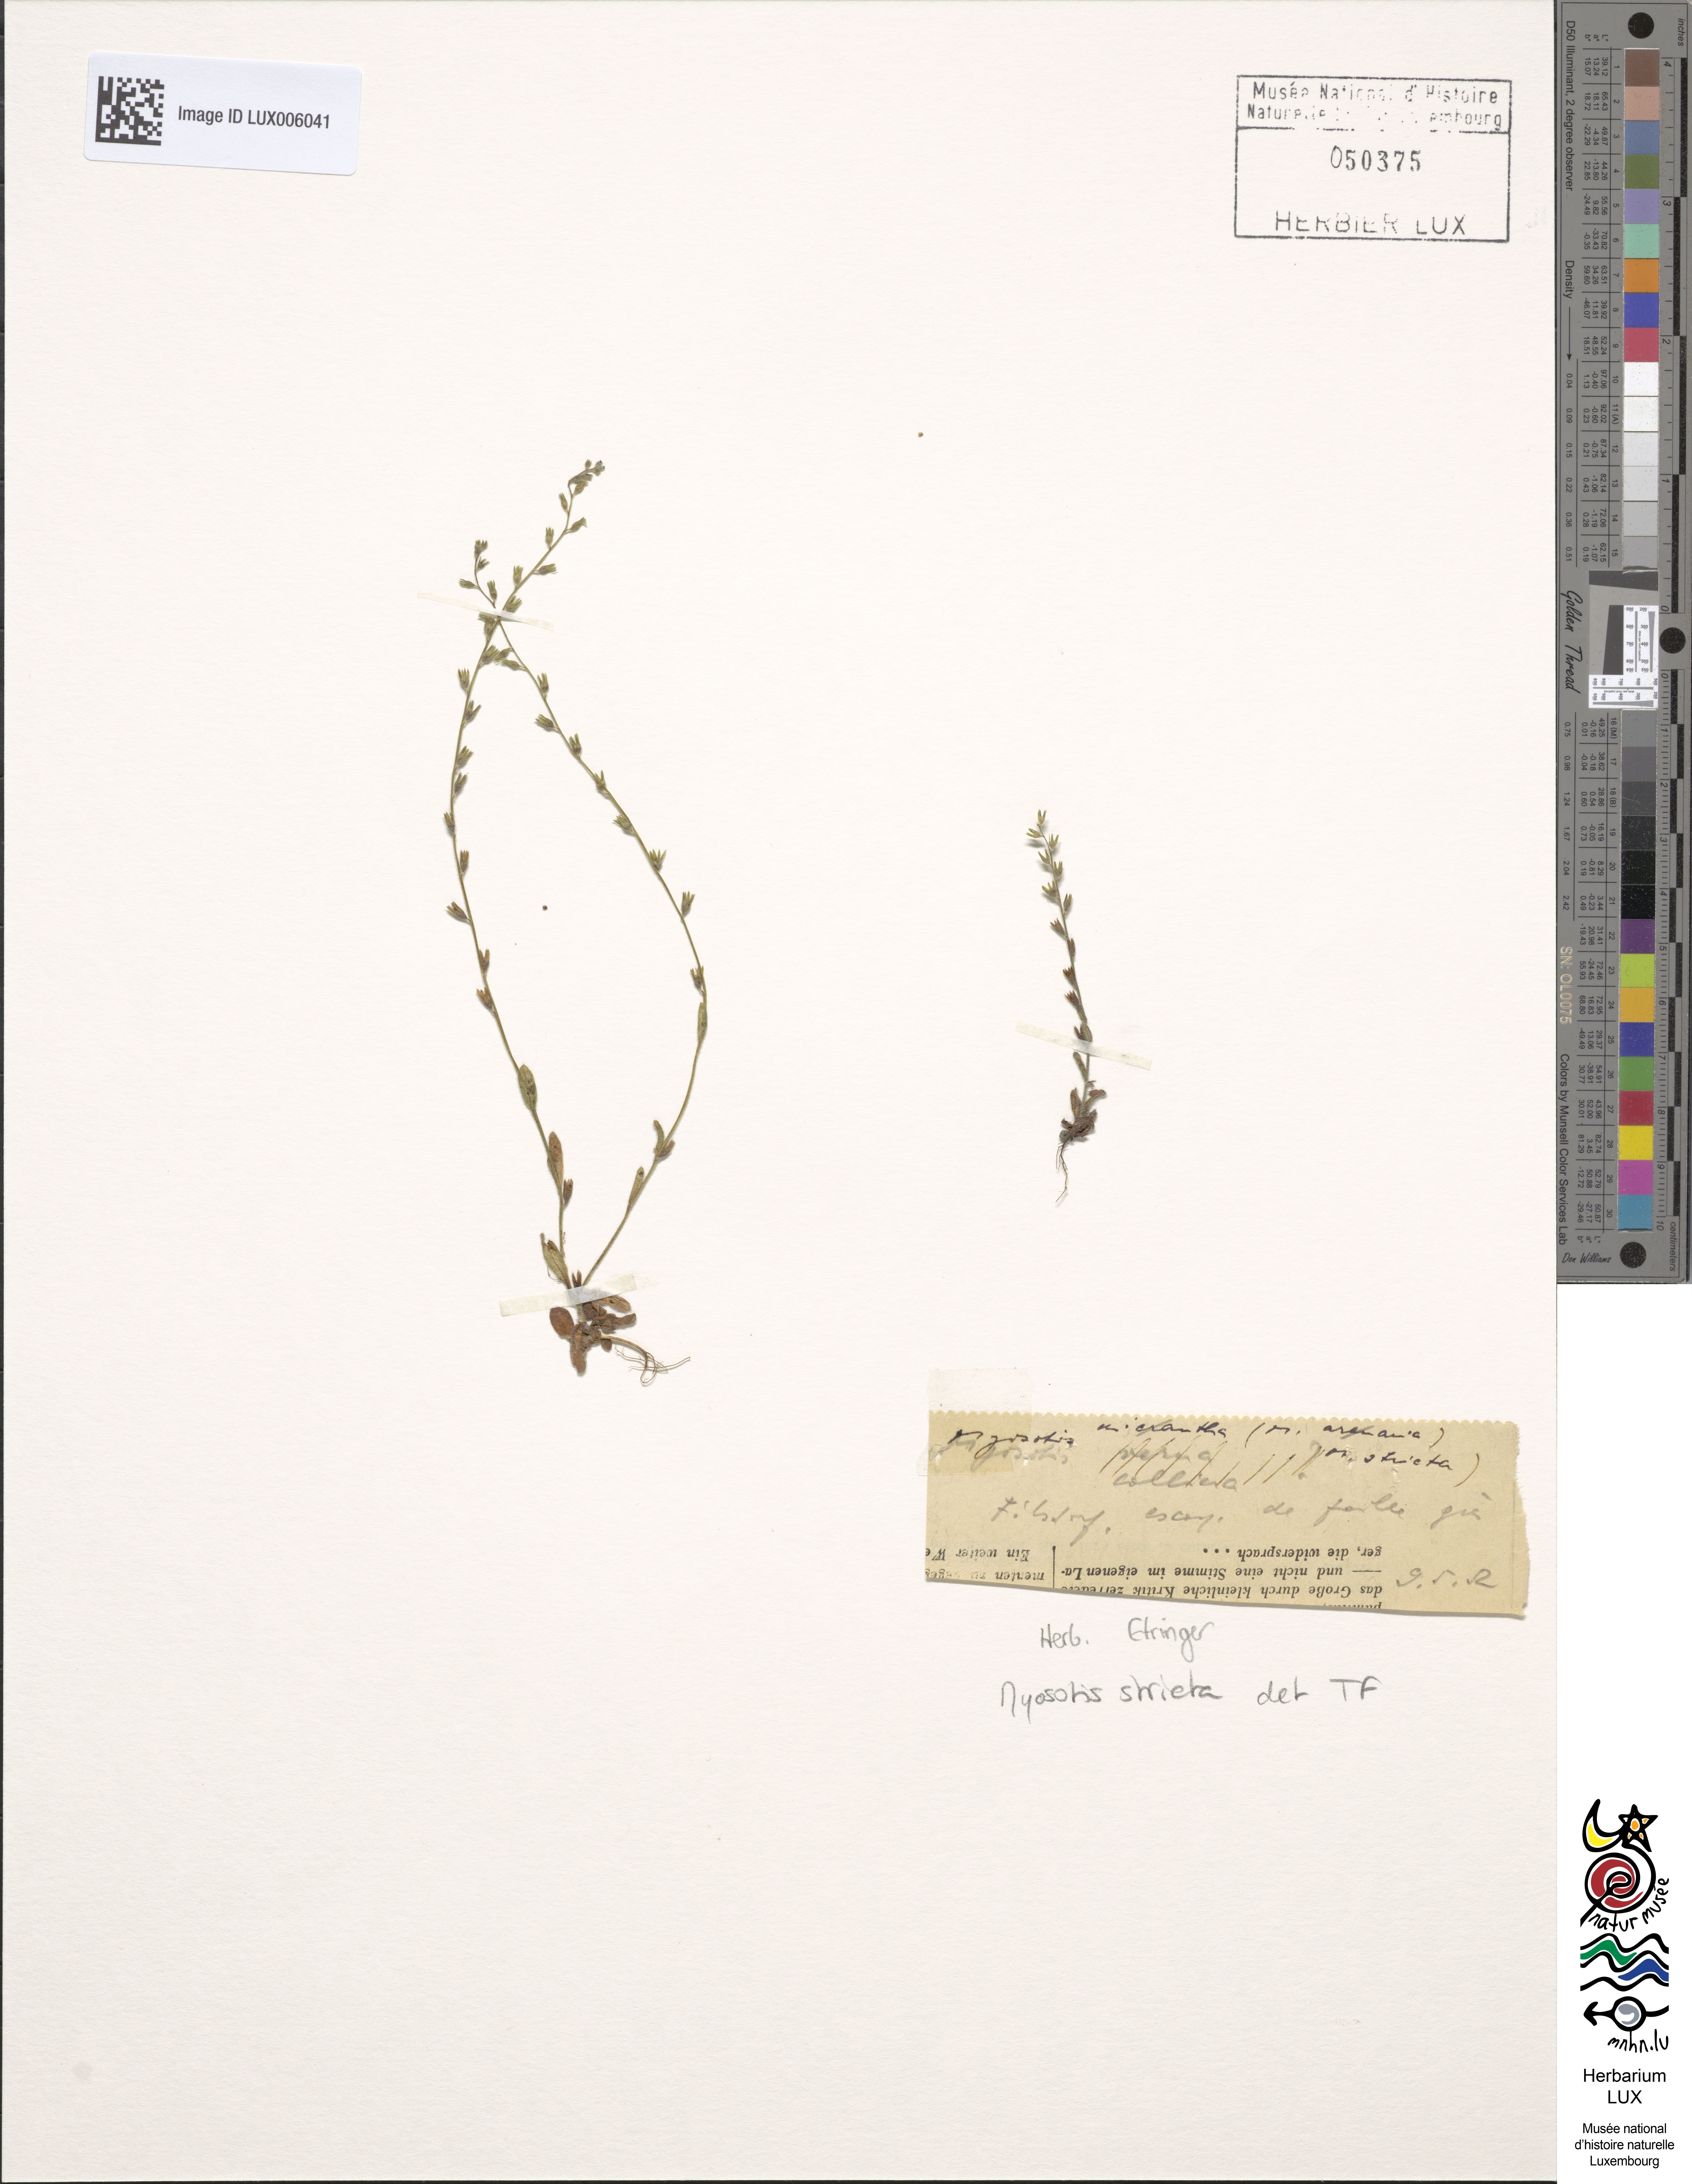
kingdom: Plantae
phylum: Tracheophyta
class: Magnoliopsida
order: Boraginales
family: Boraginaceae
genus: Myosotis
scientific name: Myosotis stricta
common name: Strict forget-me-not
